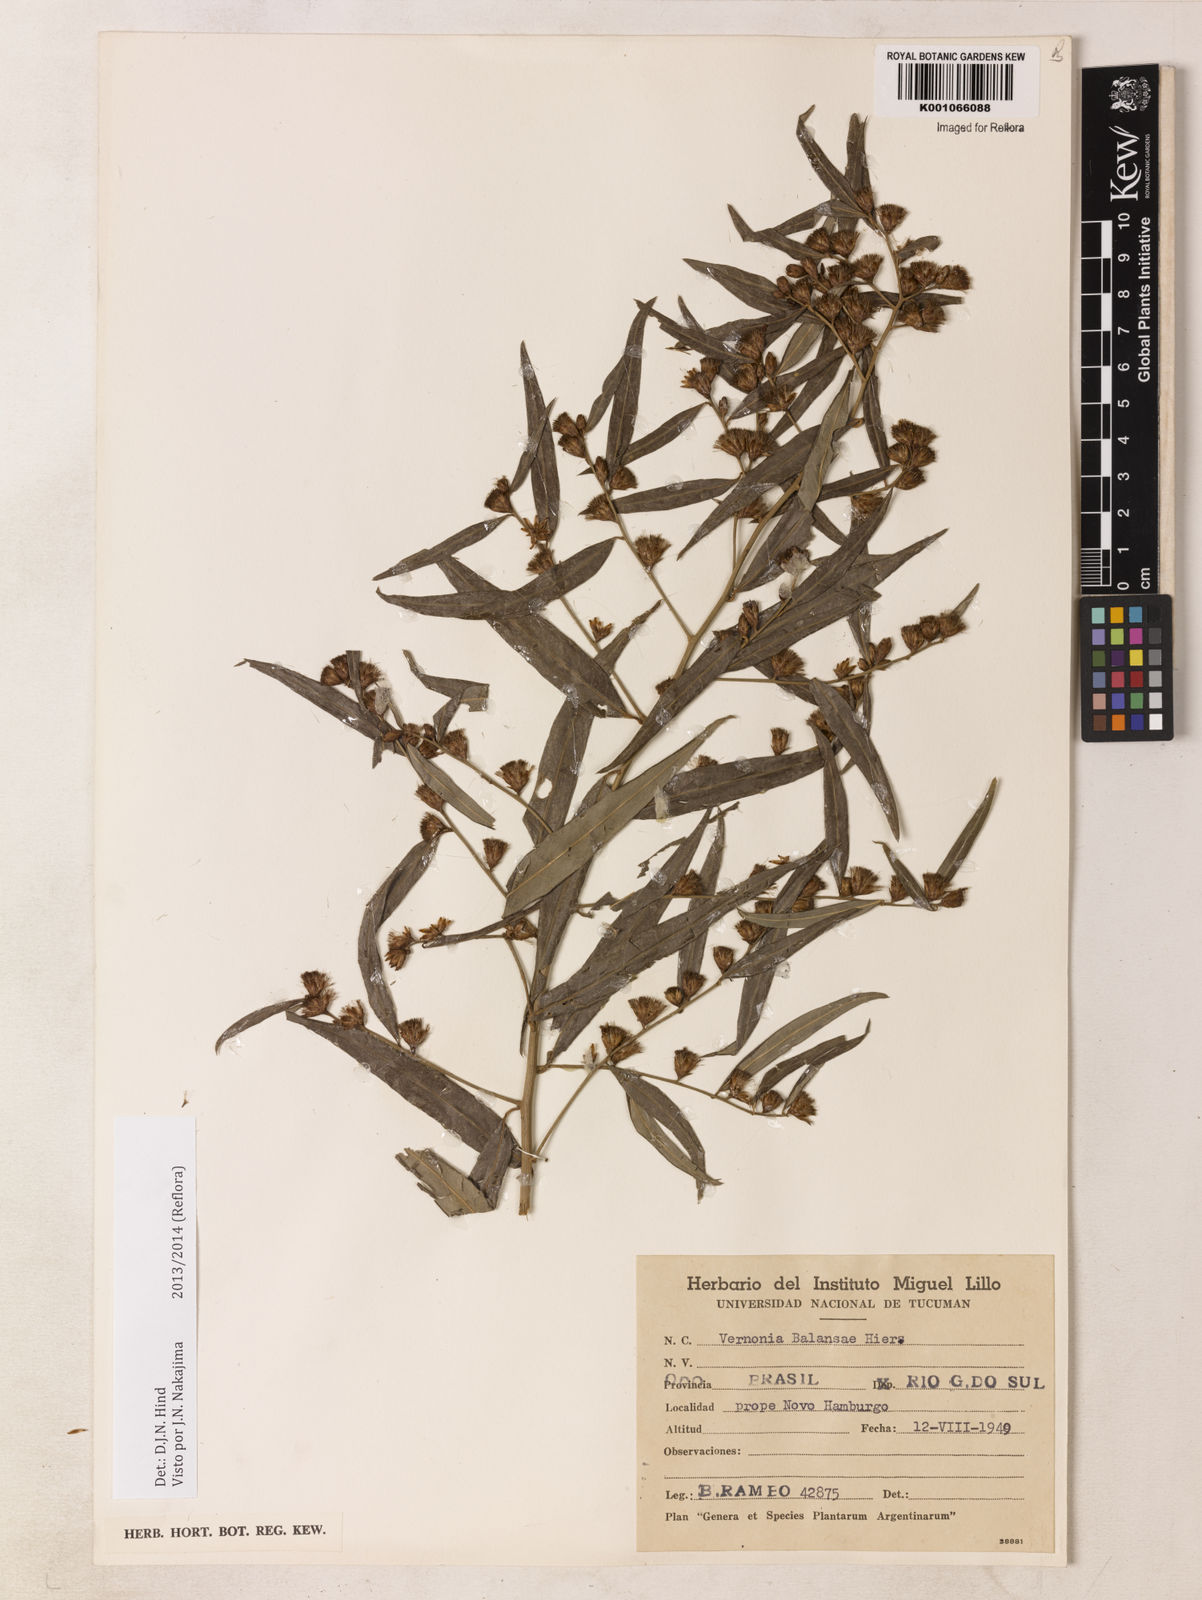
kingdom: Plantae
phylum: Tracheophyta
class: Magnoliopsida
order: Asterales
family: Asteraceae
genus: Vernonia
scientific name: Vernonia balansae
